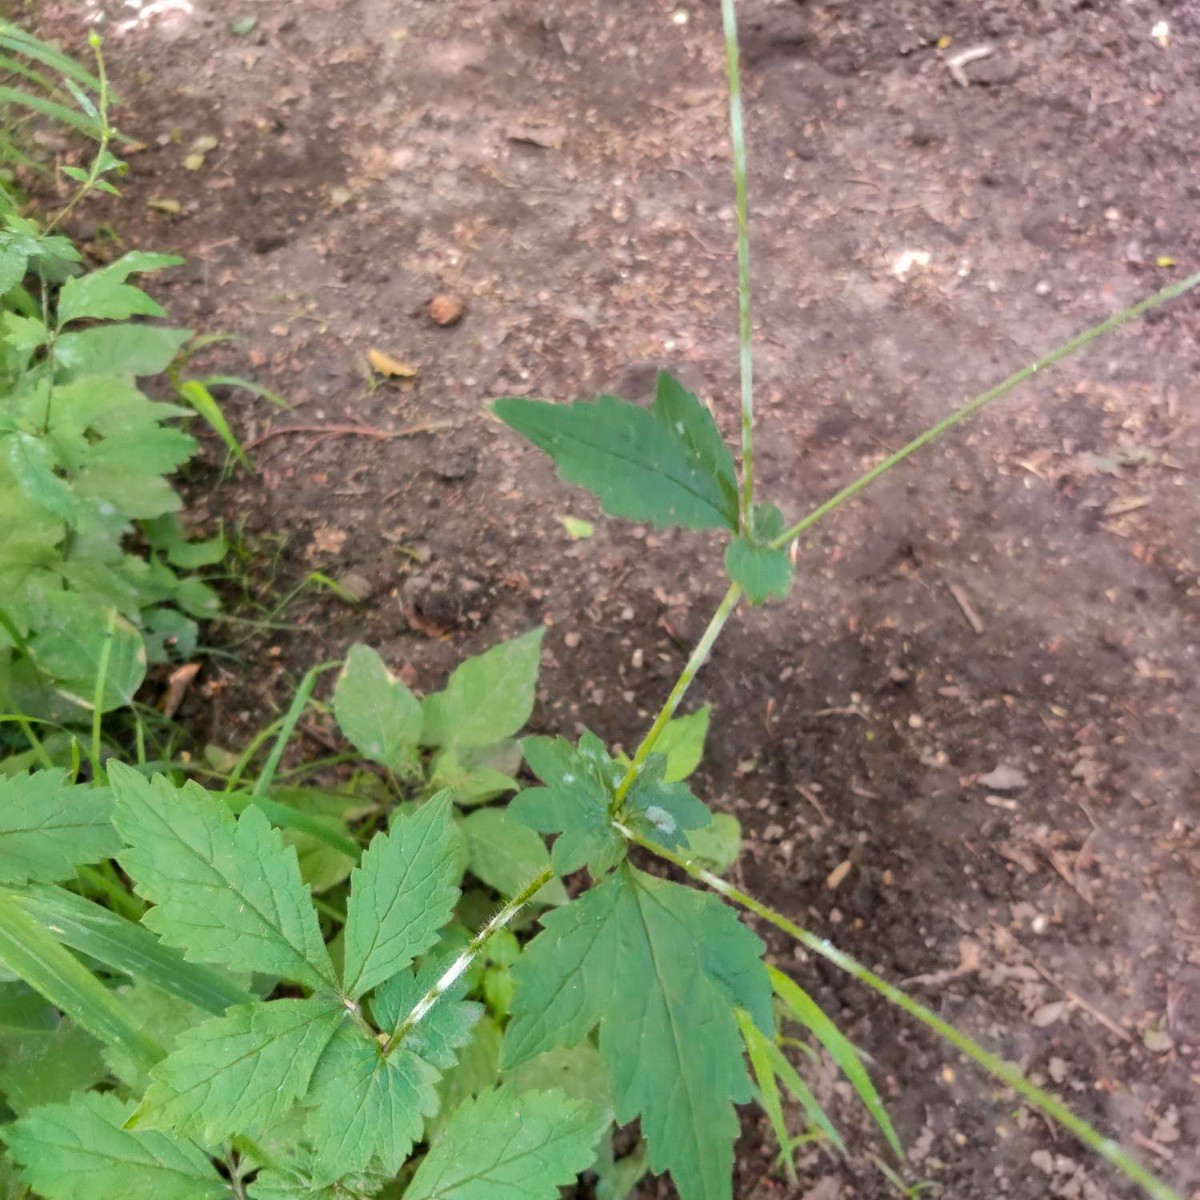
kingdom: Fungi
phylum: Ascomycota
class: Leotiomycetes
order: Helotiales
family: Erysiphaceae
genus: Podosphaera
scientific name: Podosphaera aphanis
